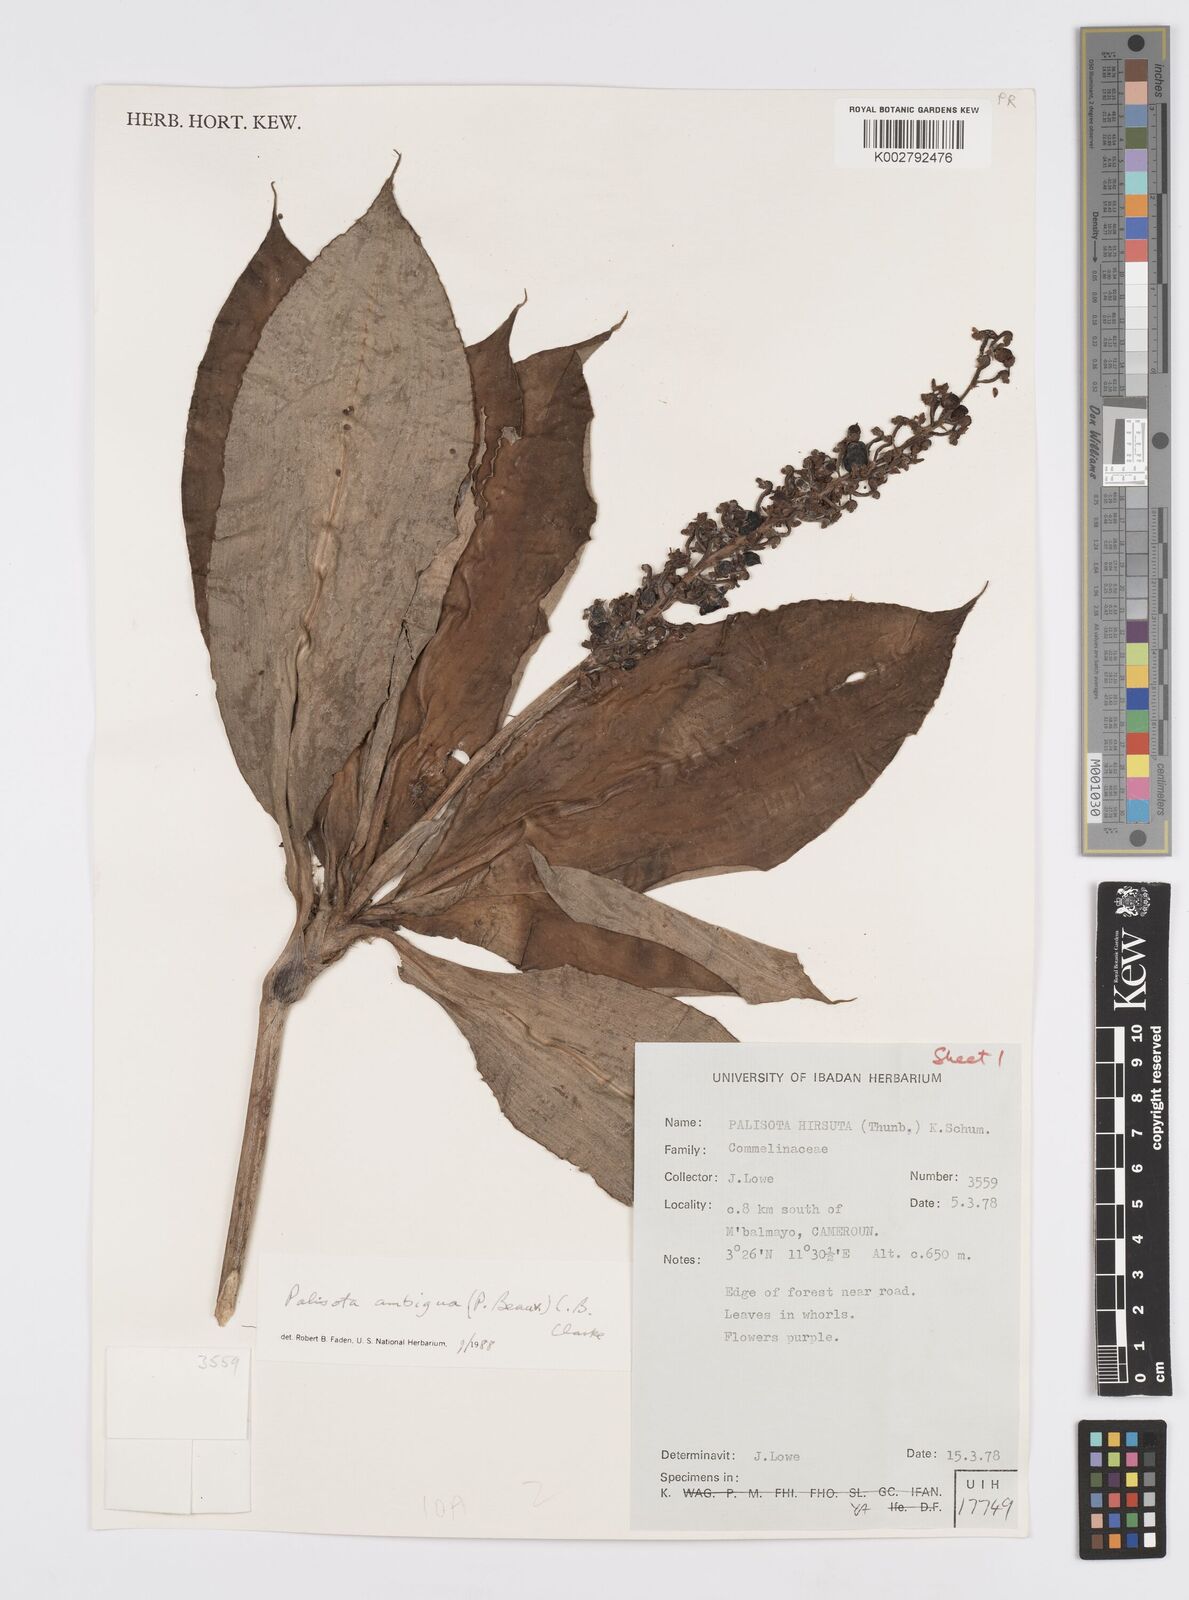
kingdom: Plantae
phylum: Tracheophyta
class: Liliopsida
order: Commelinales
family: Commelinaceae
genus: Palisota
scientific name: Palisota ambigua
